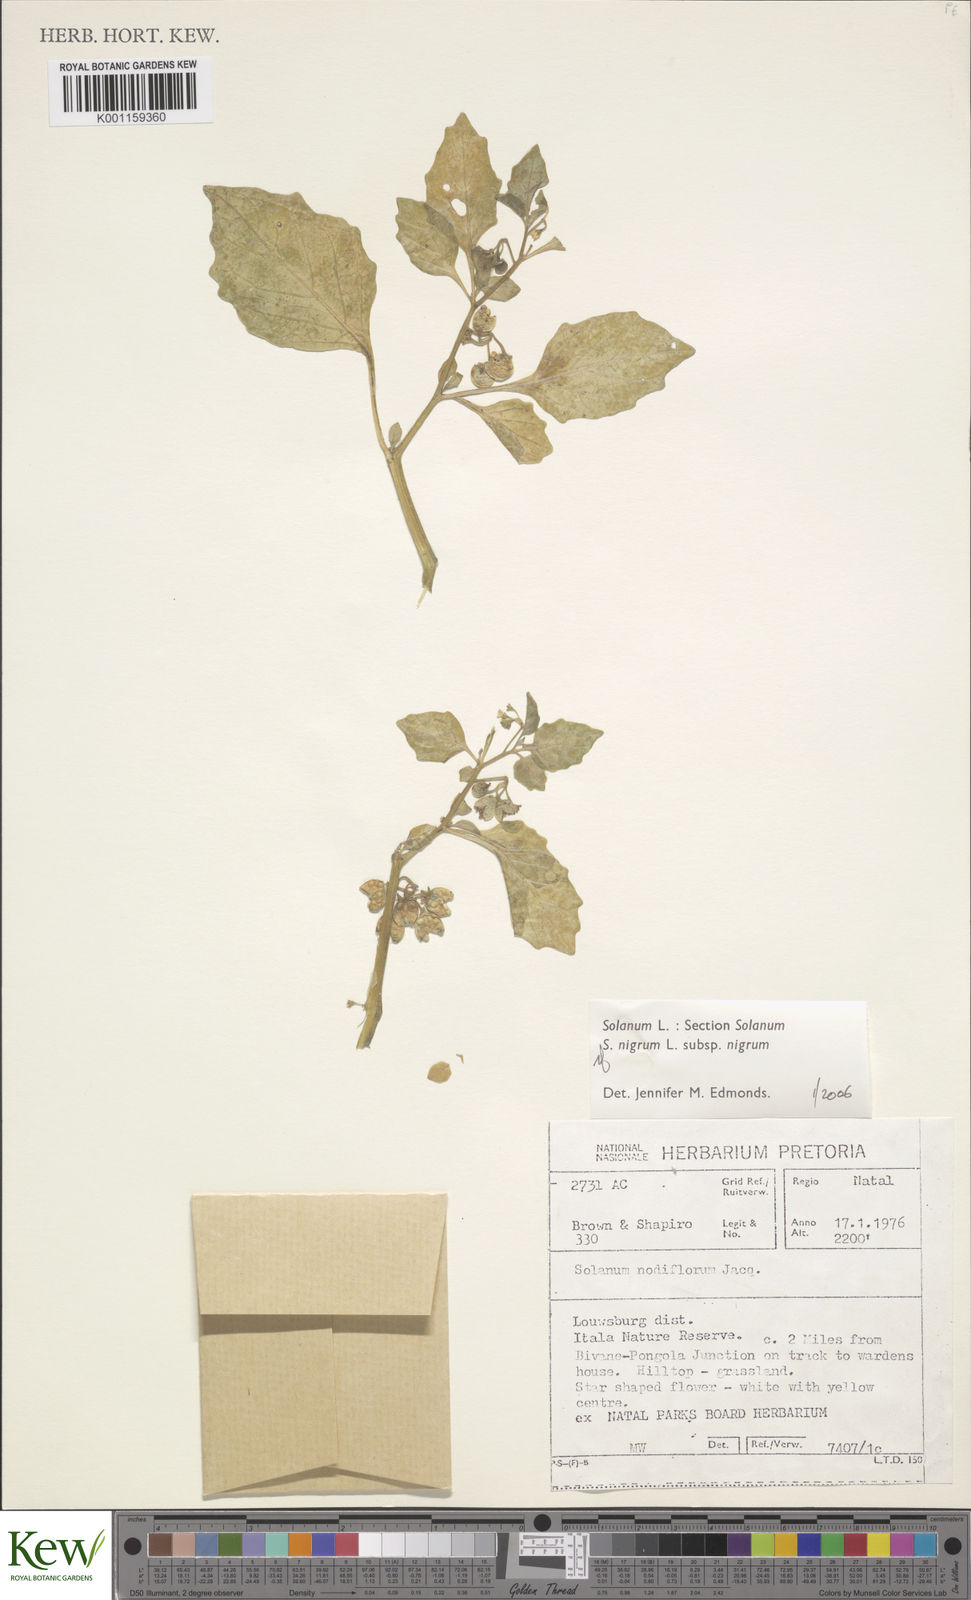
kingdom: Plantae
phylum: Tracheophyta
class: Magnoliopsida
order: Solanales
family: Solanaceae
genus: Solanum
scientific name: Solanum retroflexum
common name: Wonderberry
